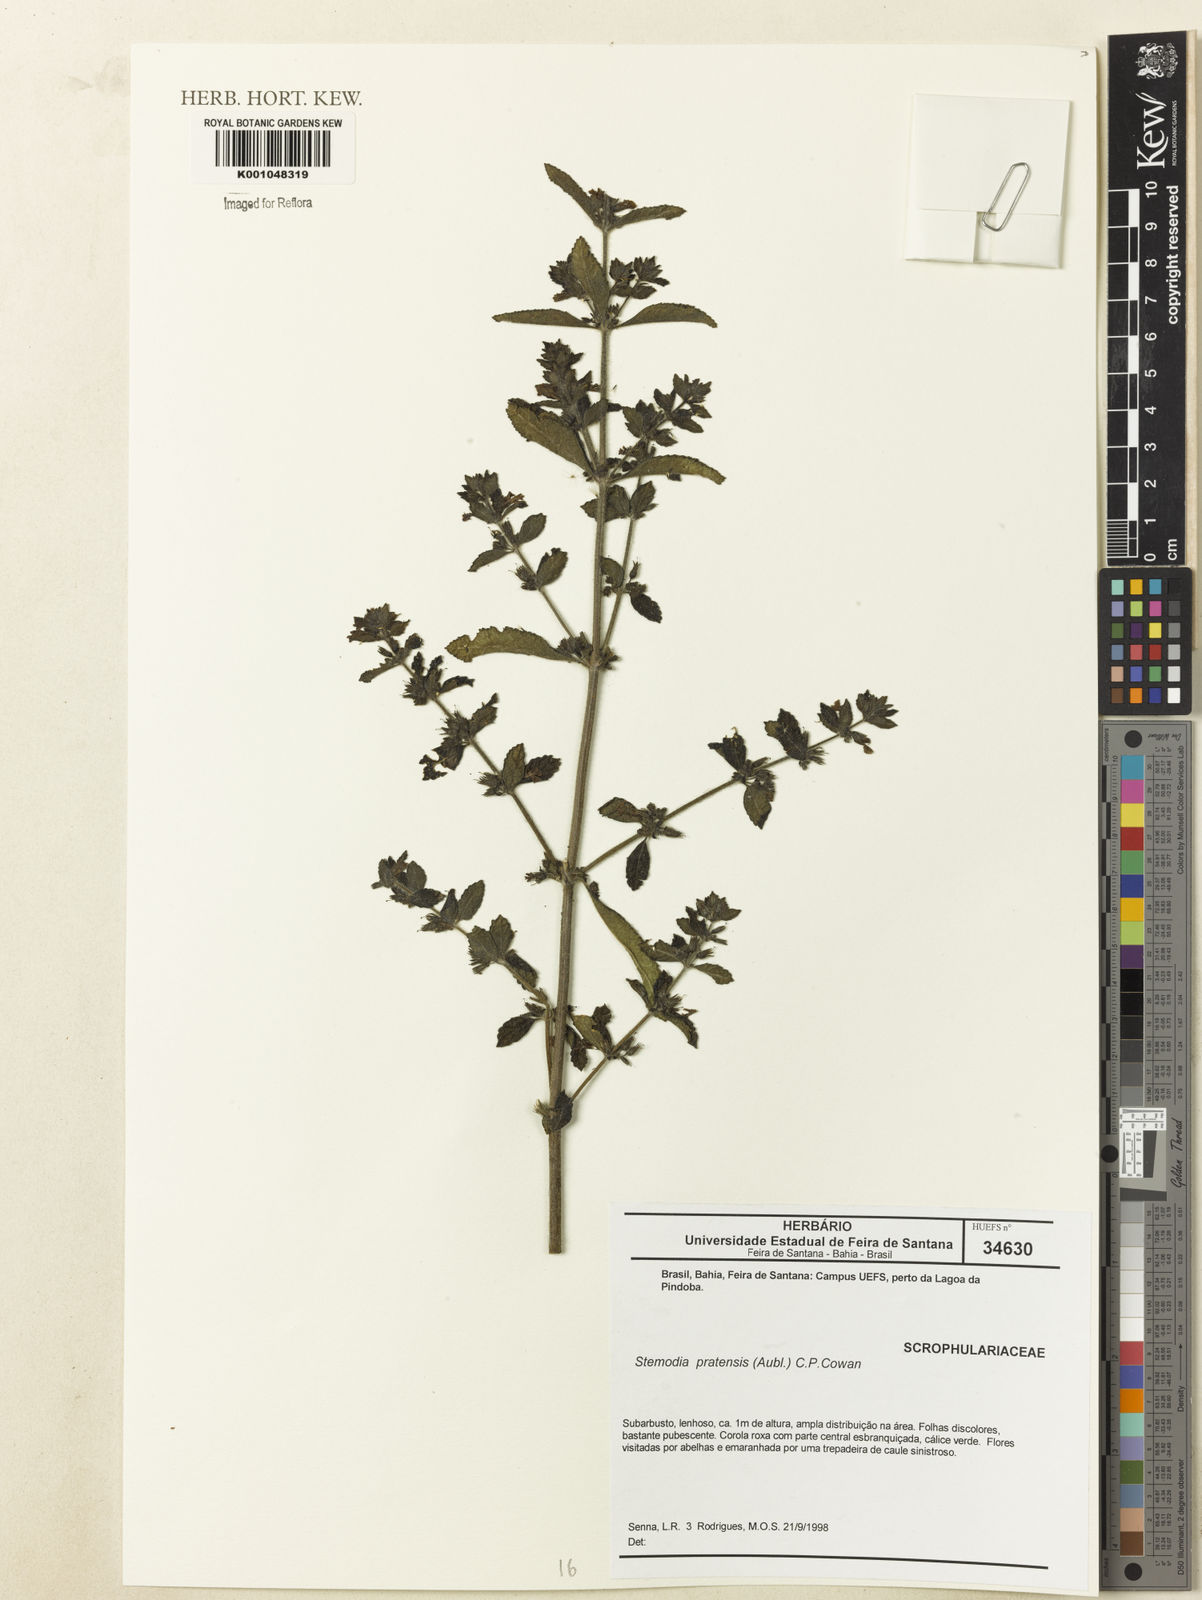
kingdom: Plantae
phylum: Tracheophyta
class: Magnoliopsida
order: Lamiales
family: Plantaginaceae
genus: Stemodia
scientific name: Stemodia foliosa
